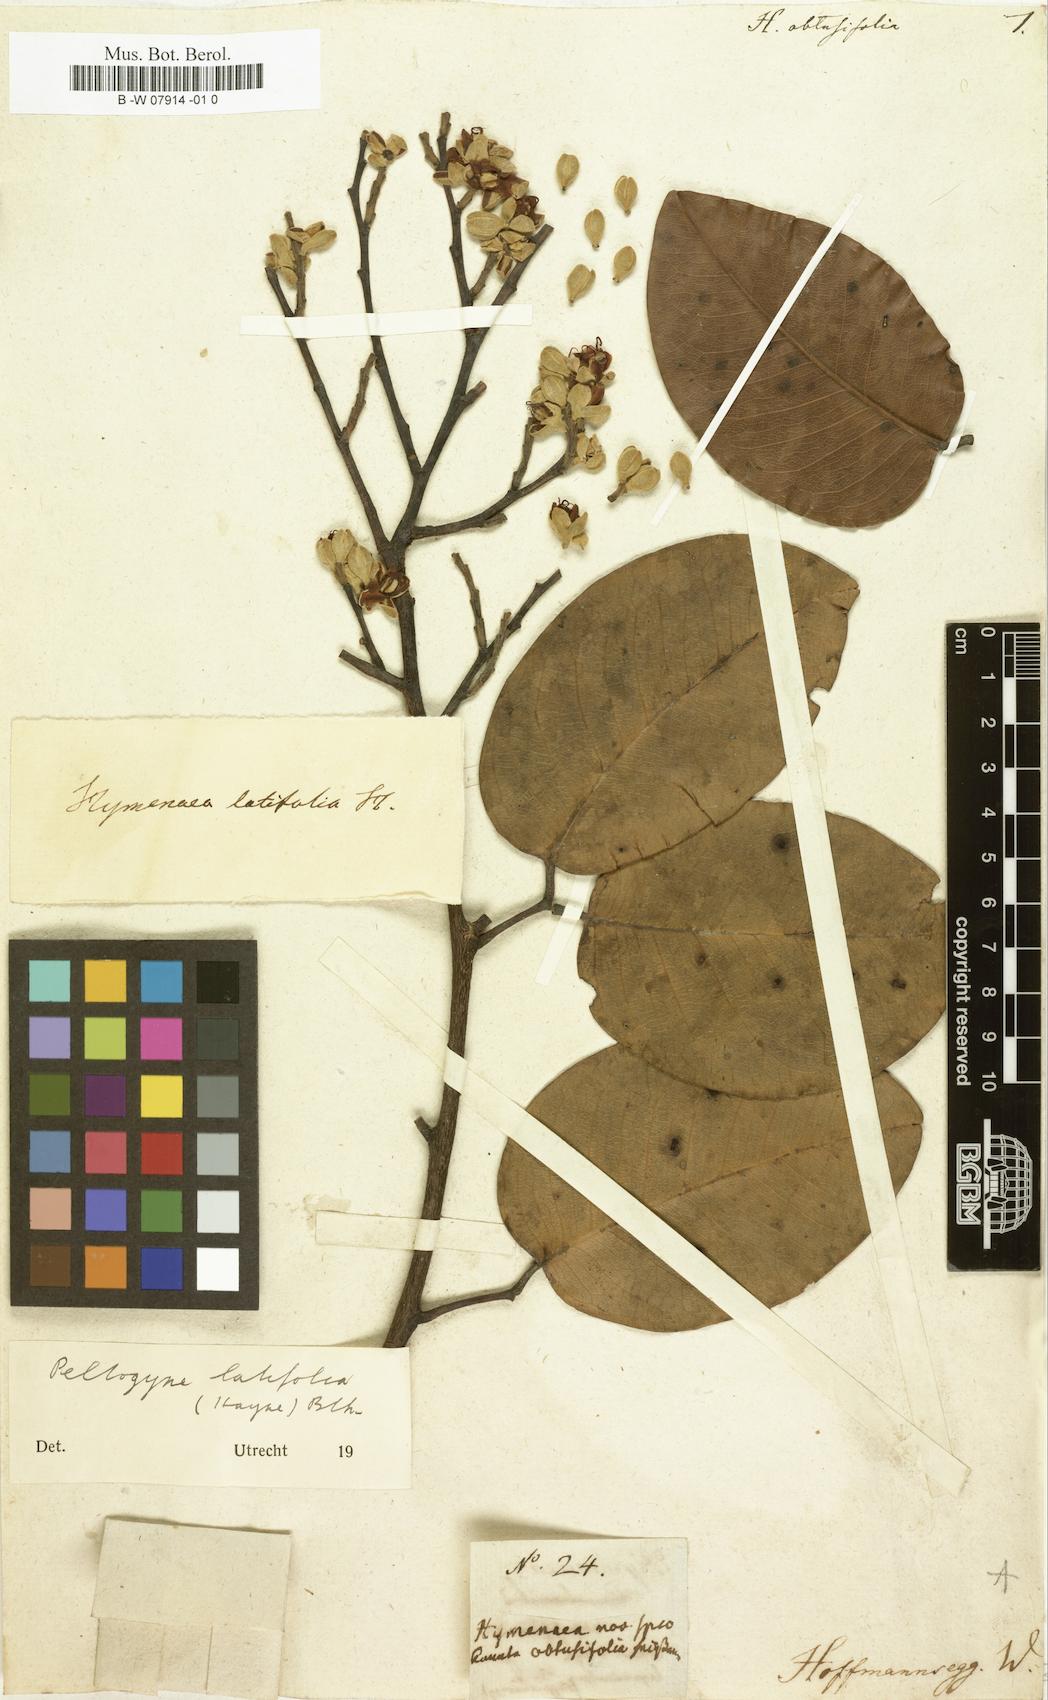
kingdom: Plantae
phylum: Tracheophyta
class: Magnoliopsida
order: Fabales
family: Fabaceae
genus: Peltogyne
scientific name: Peltogyne floribunda
